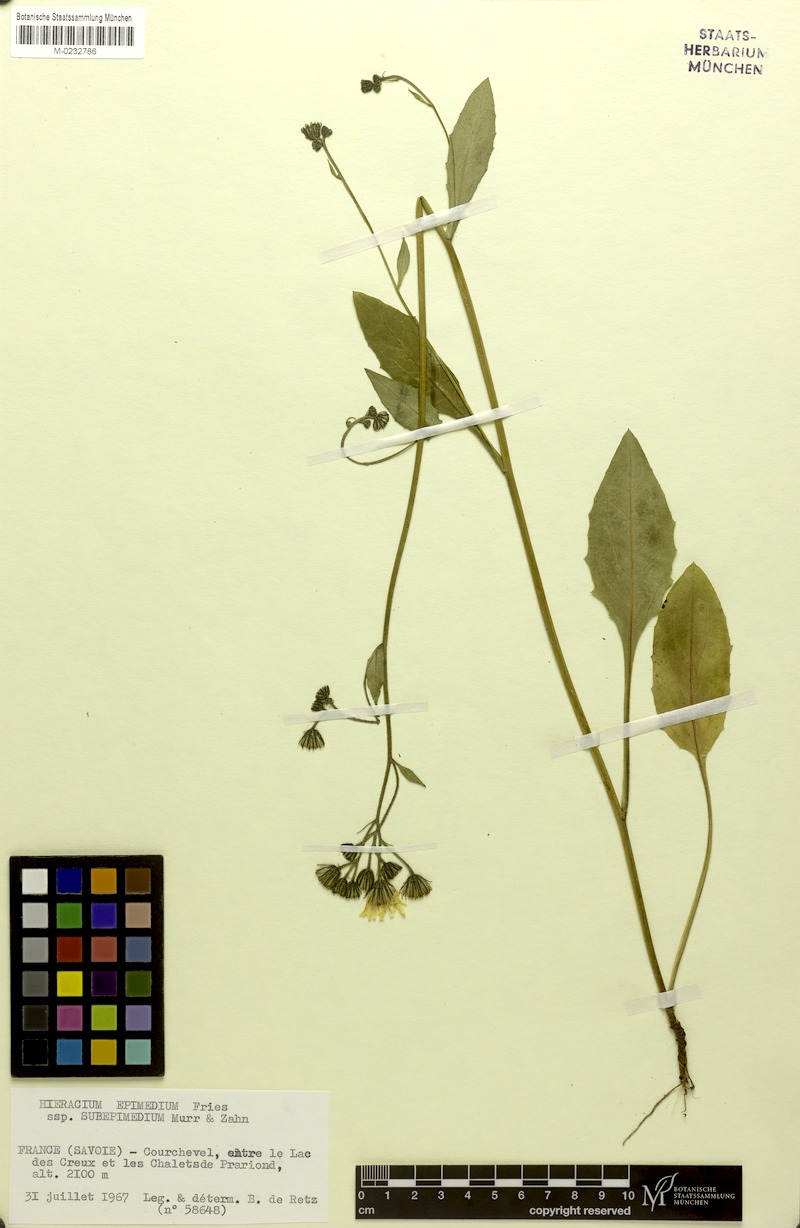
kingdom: Plantae
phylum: Tracheophyta
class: Magnoliopsida
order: Asterales
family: Asteraceae
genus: Hieracium
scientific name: Hieracium froelichianum
